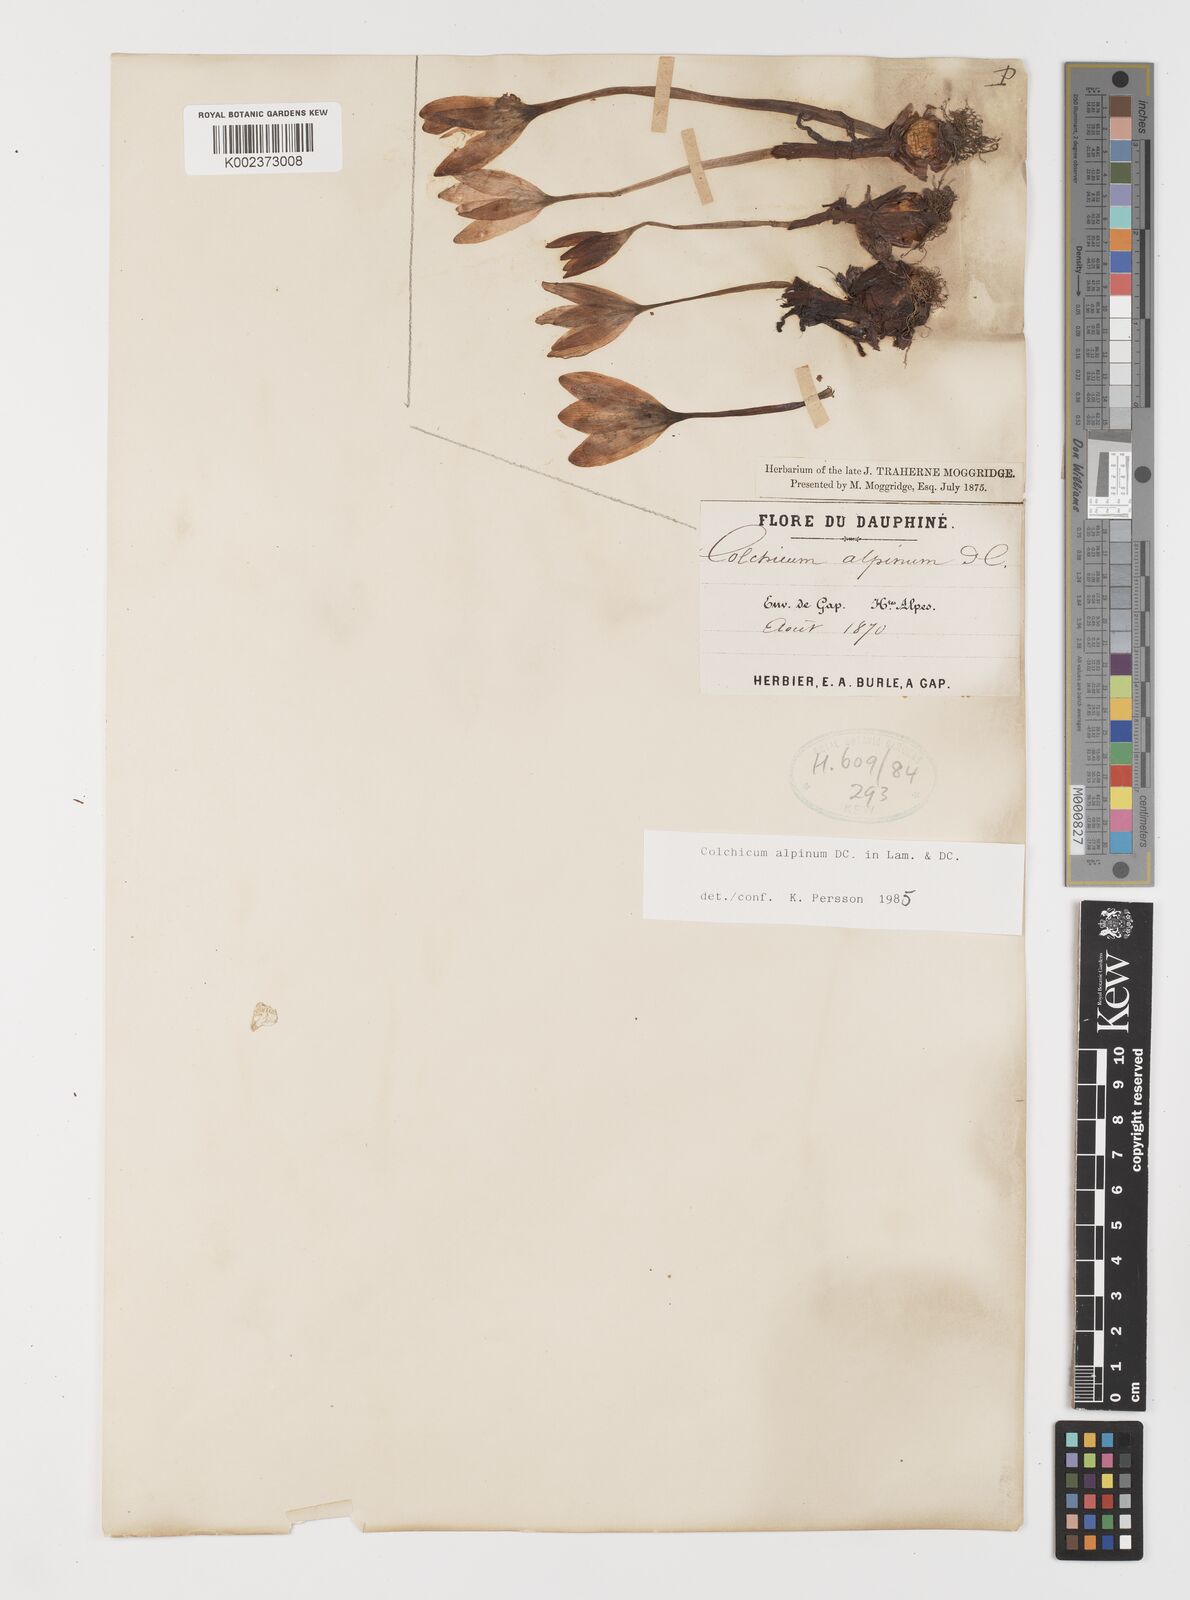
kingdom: Plantae
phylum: Tracheophyta
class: Liliopsida
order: Liliales
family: Colchicaceae
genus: Colchicum
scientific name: Colchicum alpinum
